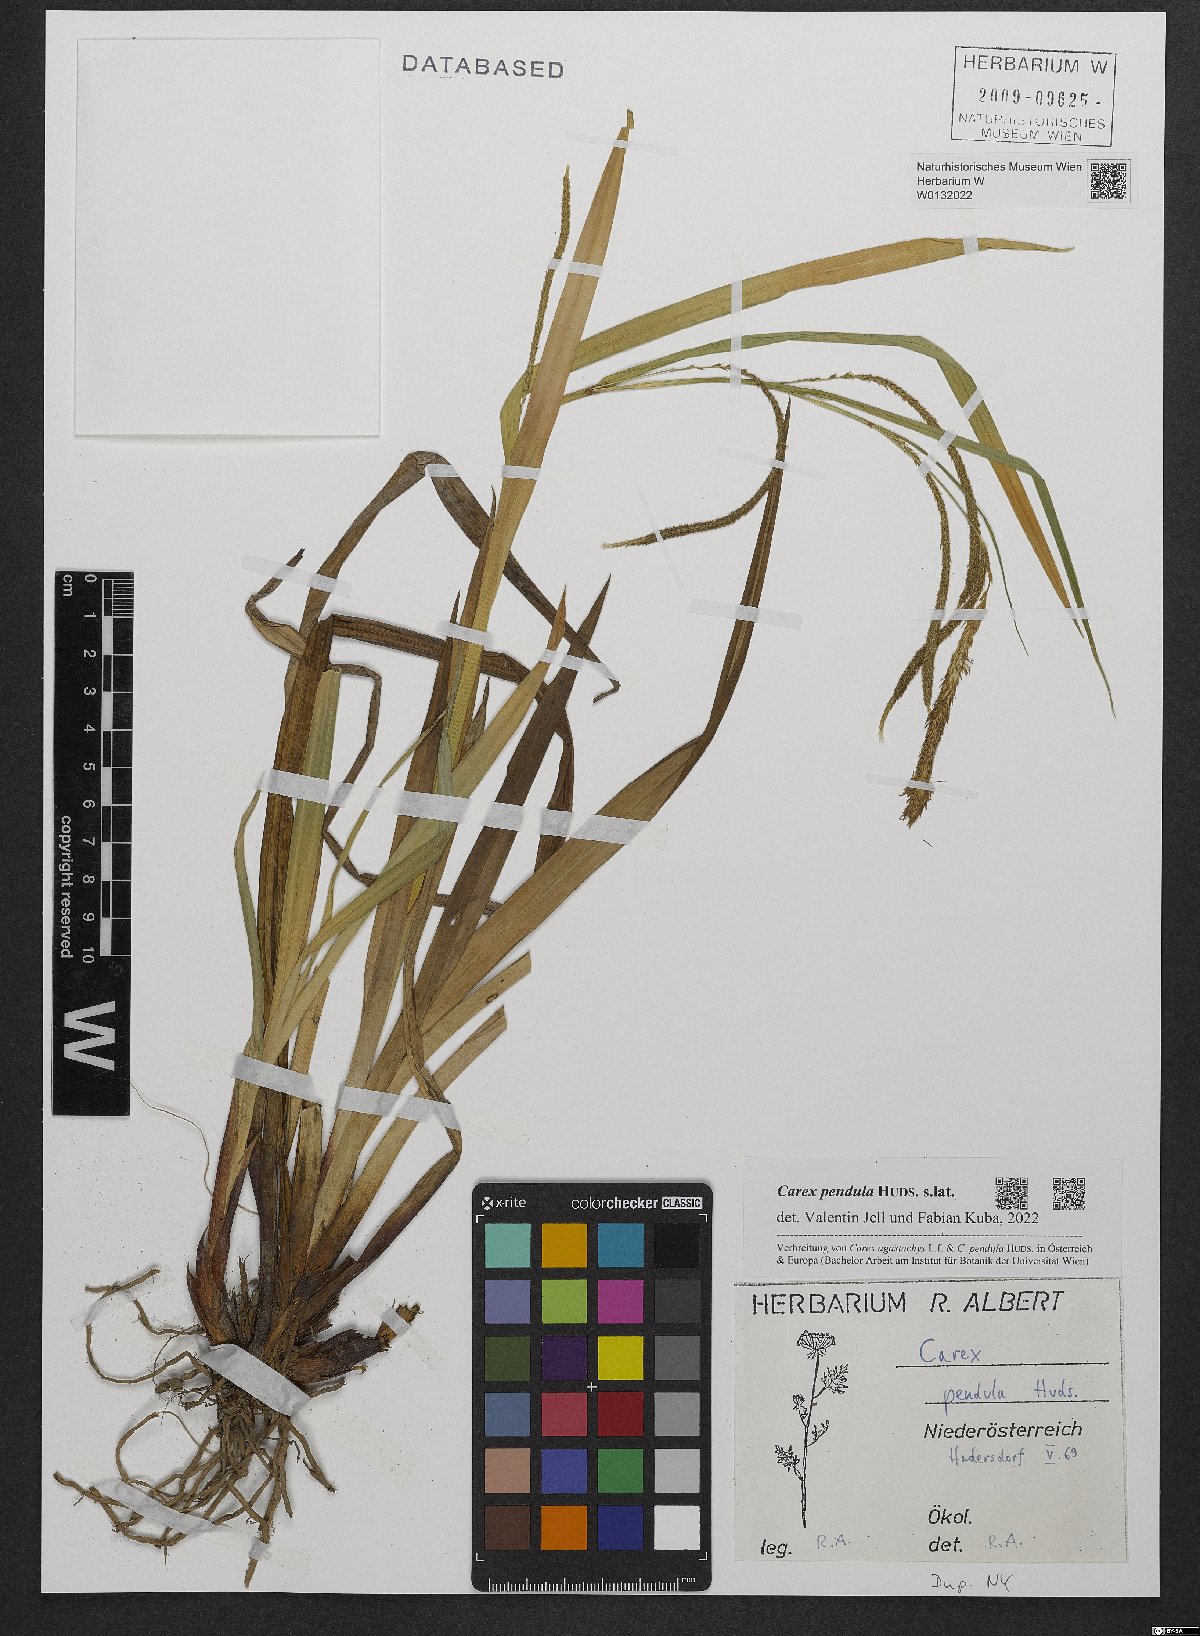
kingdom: Plantae
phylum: Tracheophyta
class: Liliopsida
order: Poales
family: Cyperaceae
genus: Carex
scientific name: Carex pendula
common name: Pendulous sedge
